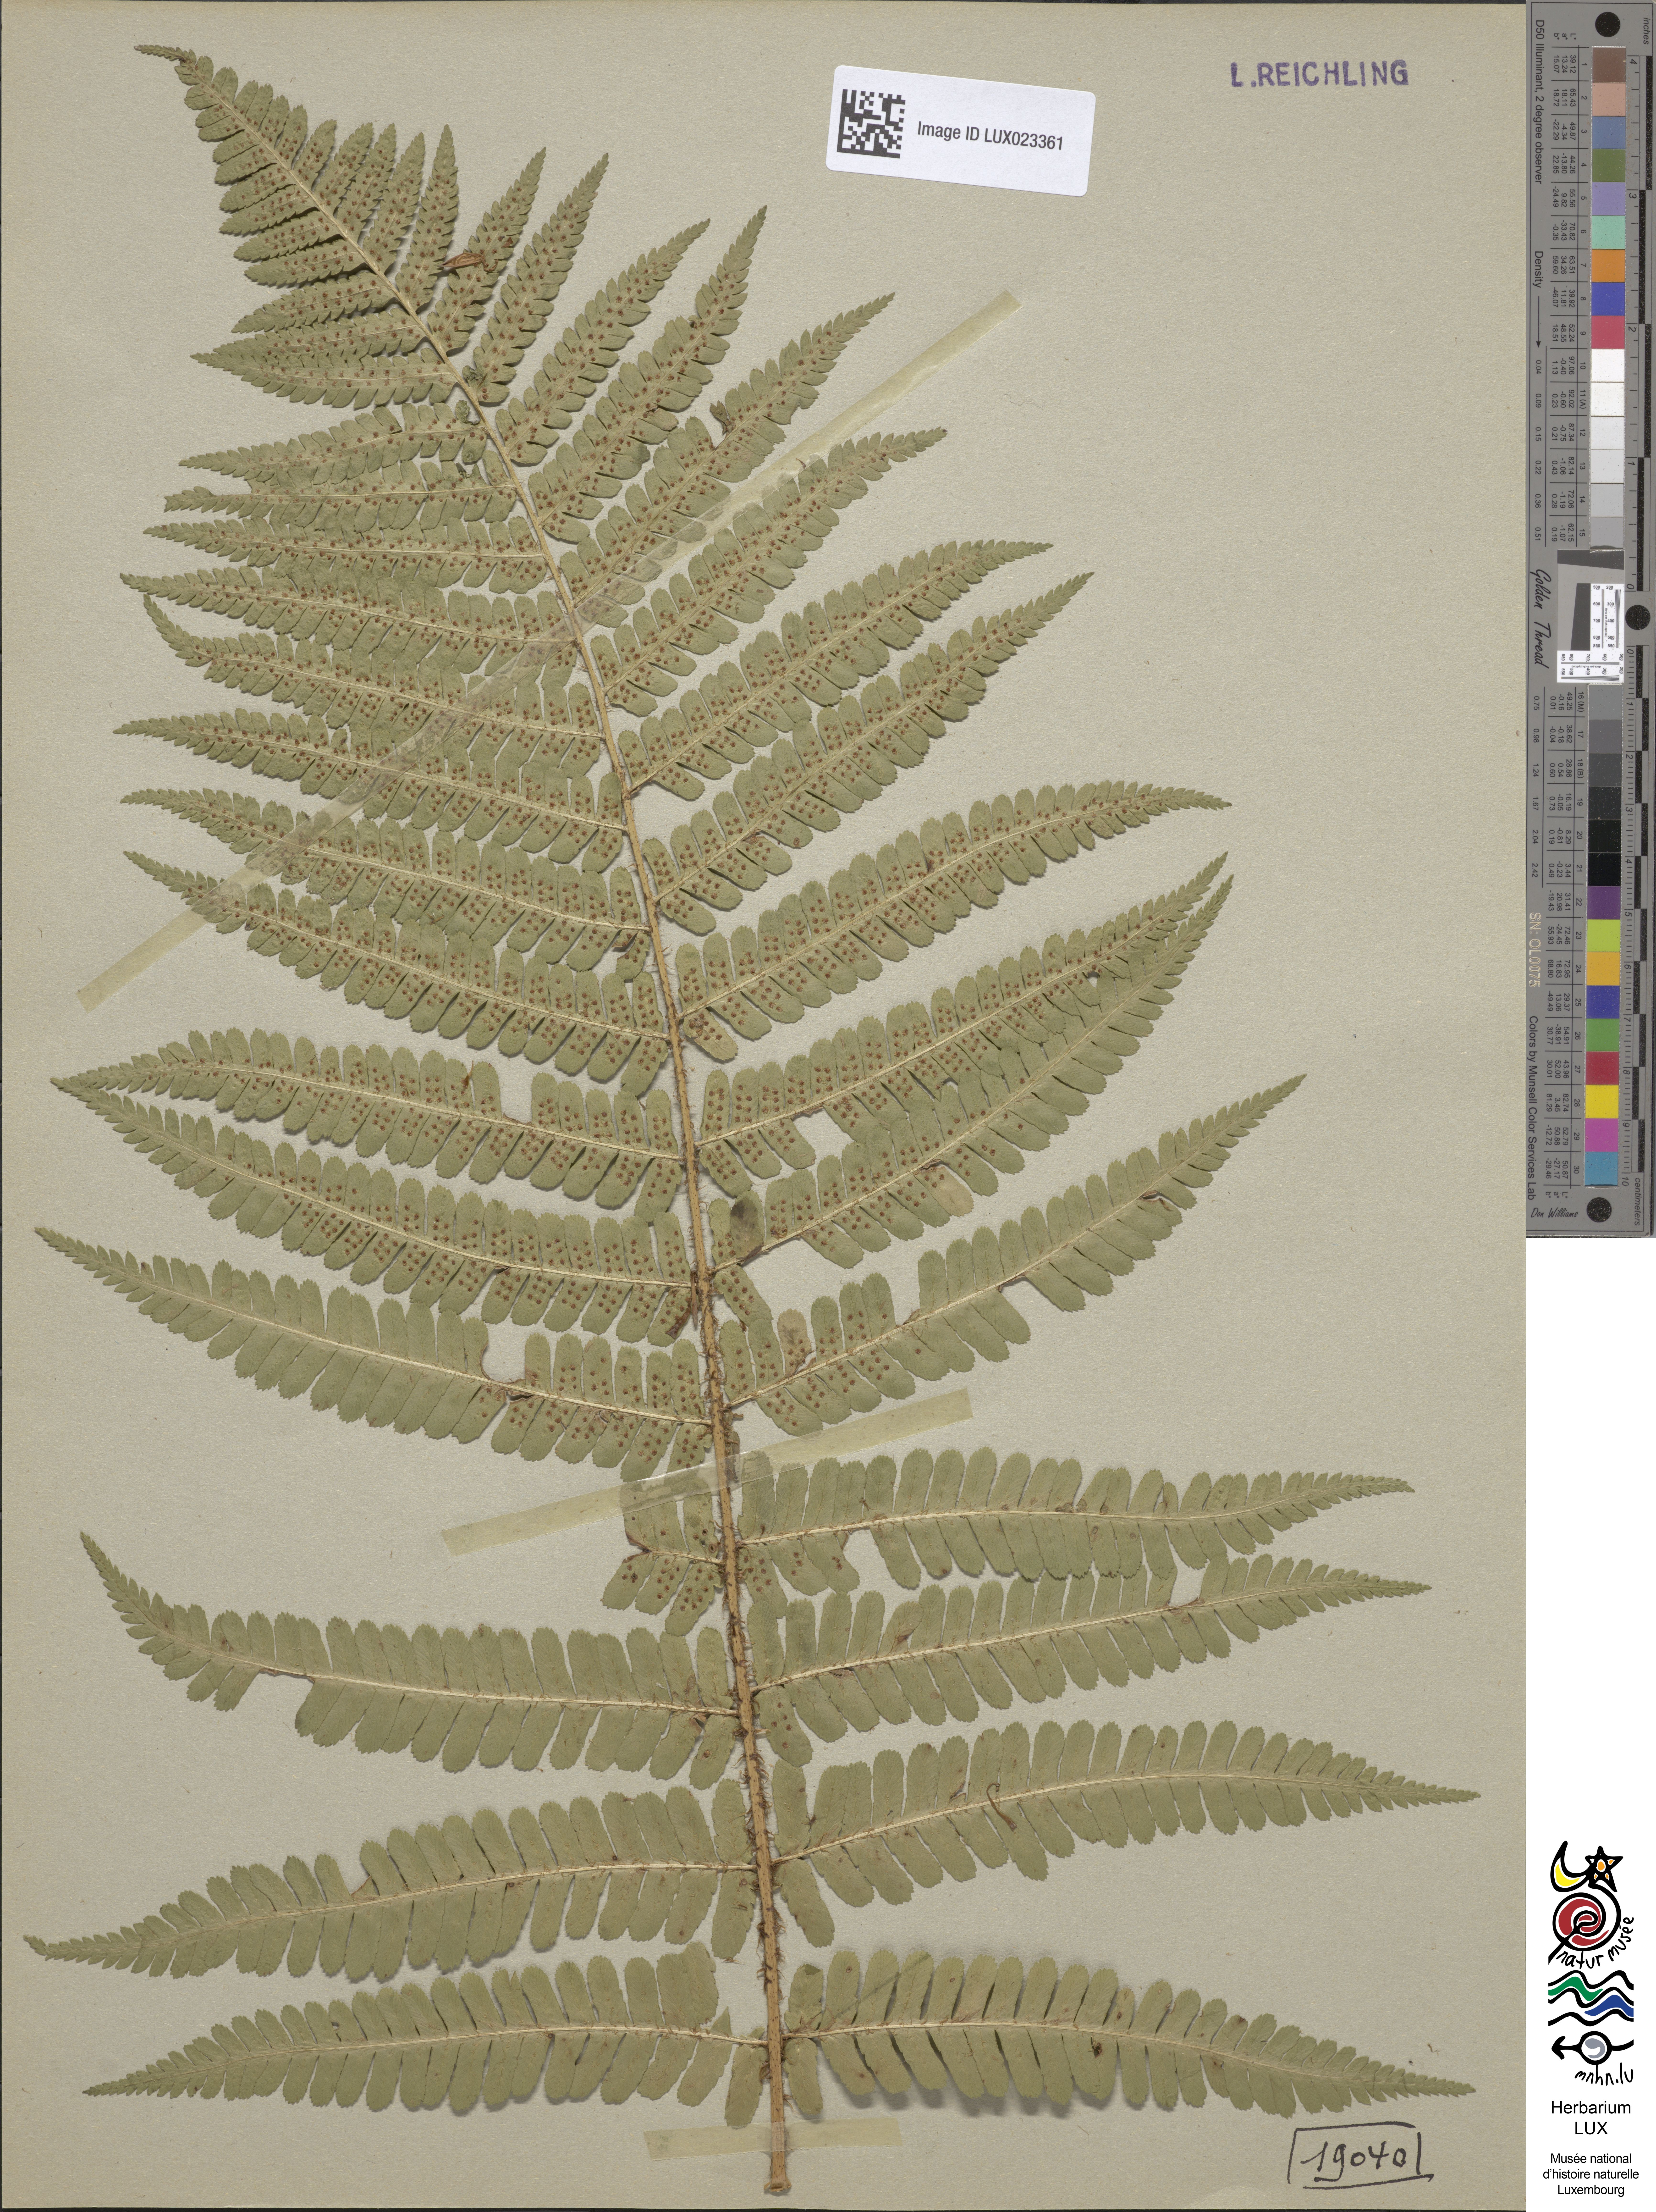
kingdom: Plantae
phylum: Tracheophyta
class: Polypodiopsida
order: Polypodiales
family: Dryopteridaceae
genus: Dryopteris
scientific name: Dryopteris borreri
